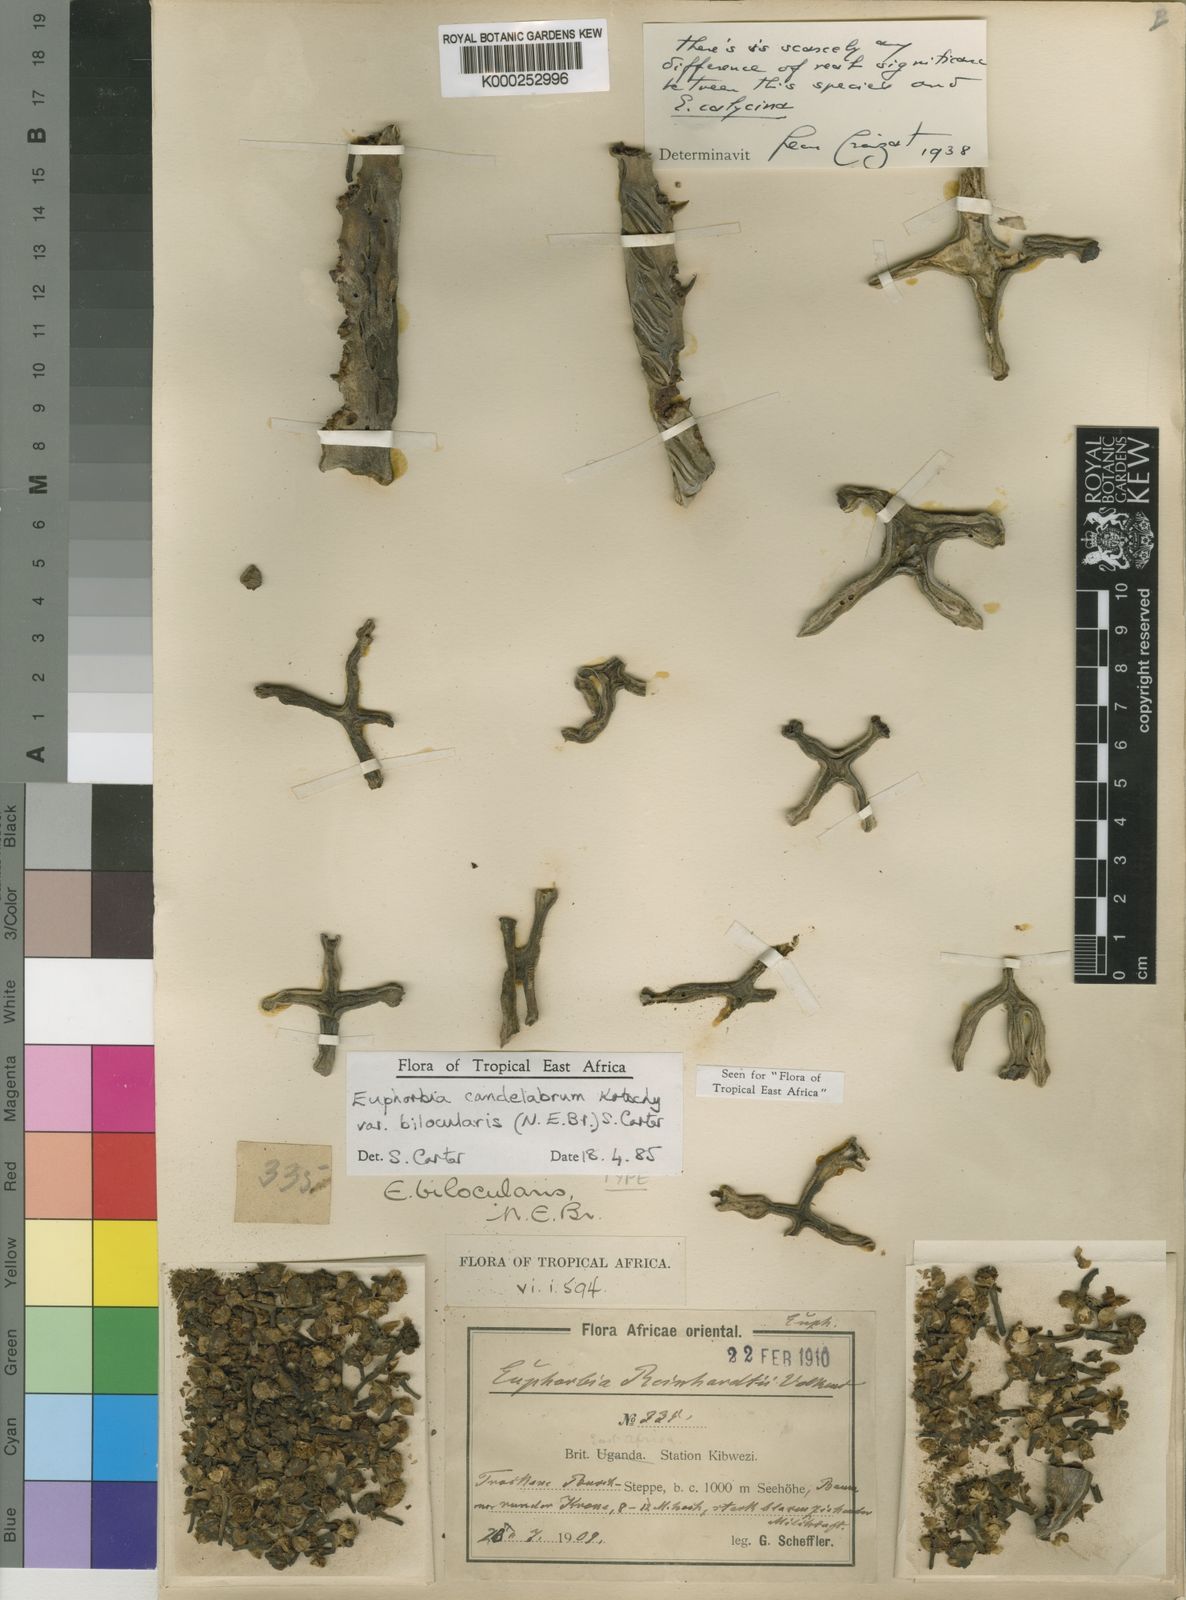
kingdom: Plantae
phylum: Tracheophyta
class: Magnoliopsida
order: Malpighiales
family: Euphorbiaceae
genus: Euphorbia
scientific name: Euphorbia ingens
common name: Cactus spurge
